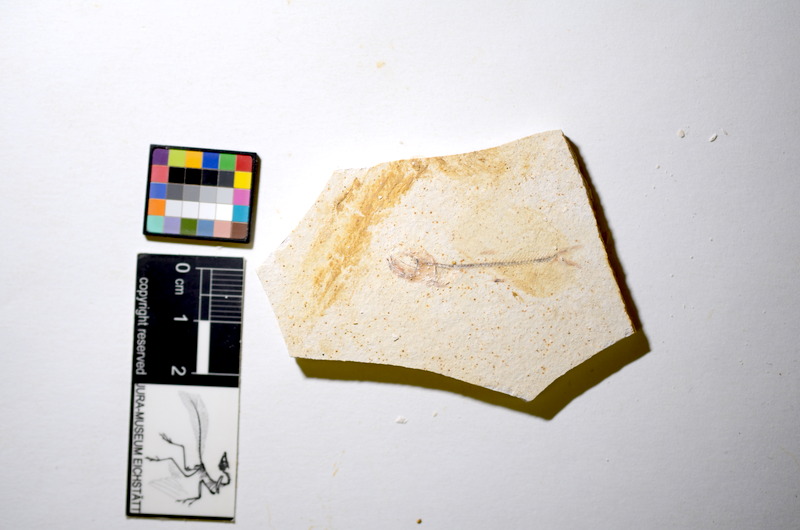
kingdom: Animalia
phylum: Chordata
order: Salmoniformes
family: Orthogonikleithridae
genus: Orthogonikleithrus
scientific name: Orthogonikleithrus hoelli
